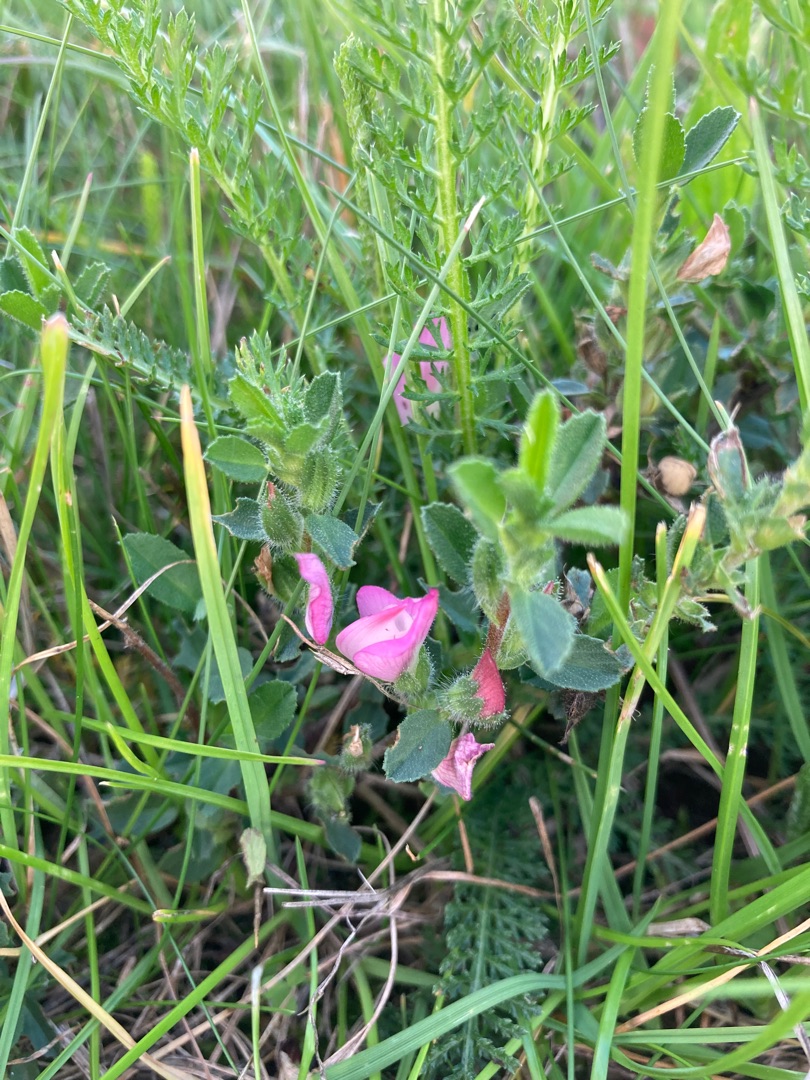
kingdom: Plantae
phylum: Tracheophyta
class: Magnoliopsida
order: Fabales
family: Fabaceae
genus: Ononis
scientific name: Ononis spinosa
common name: Krageklo
